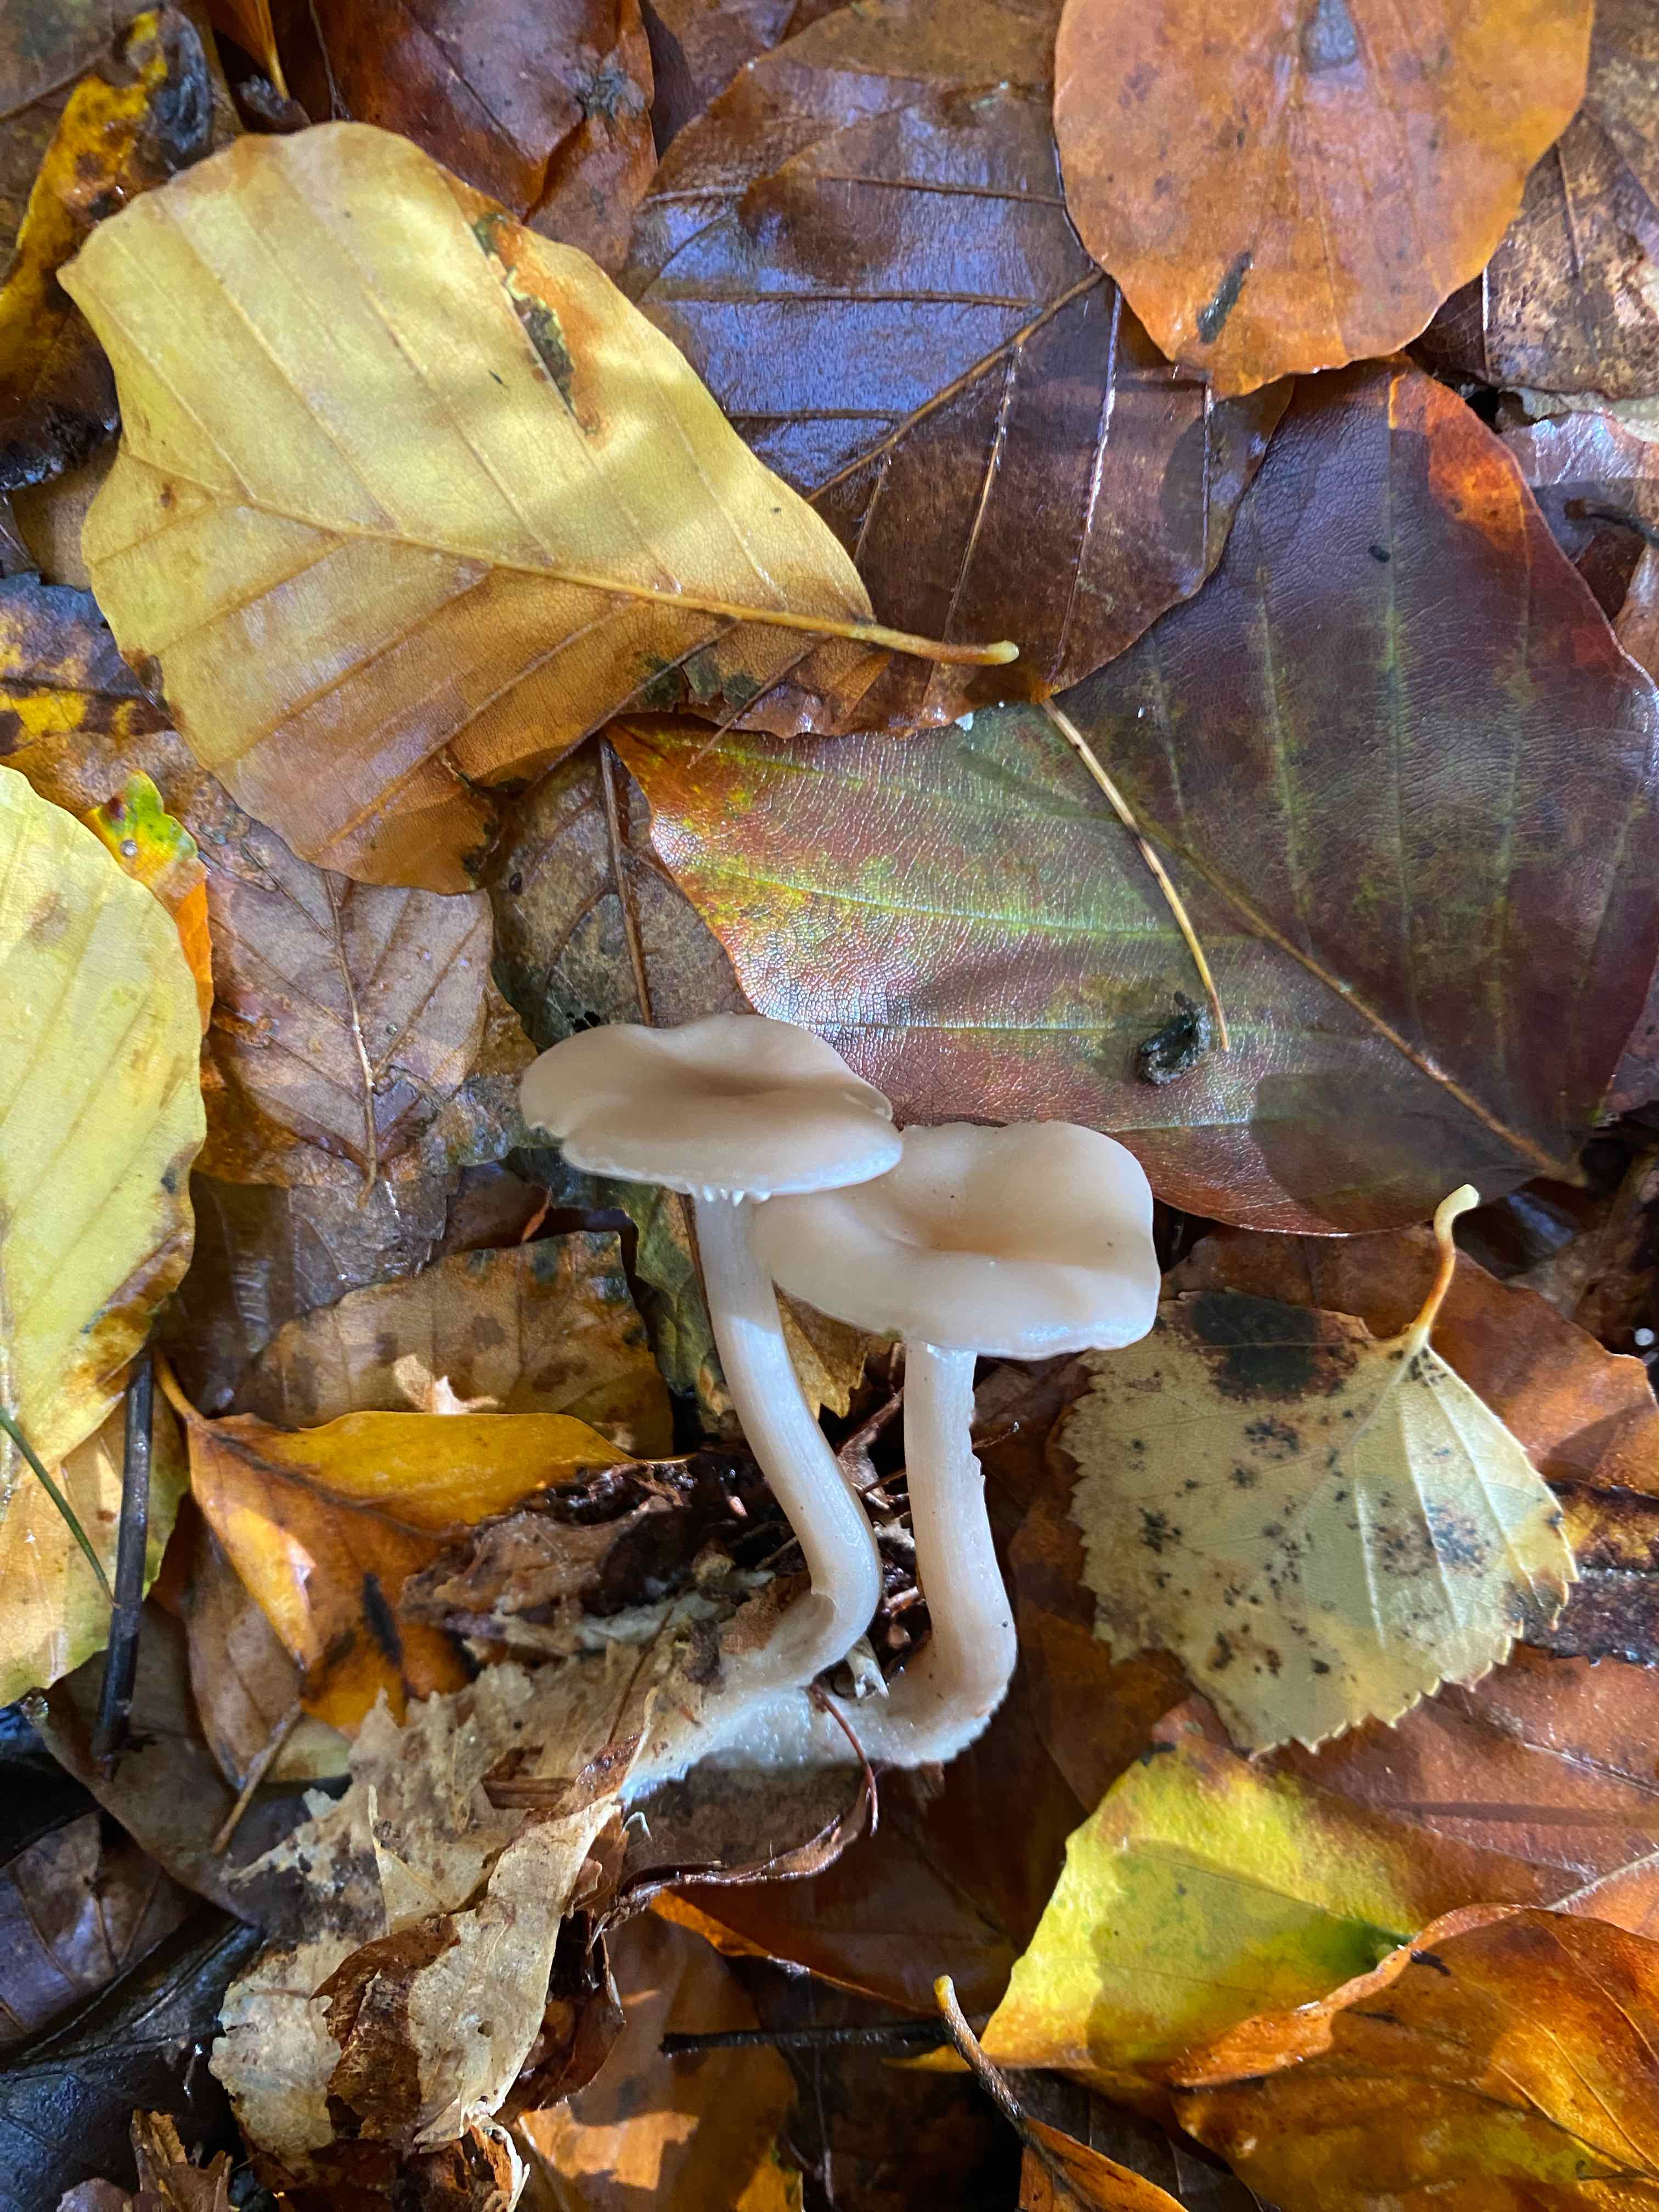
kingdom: Fungi
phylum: Basidiomycota
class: Agaricomycetes
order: Agaricales
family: Tricholomataceae
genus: Clitocybe
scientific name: Clitocybe
